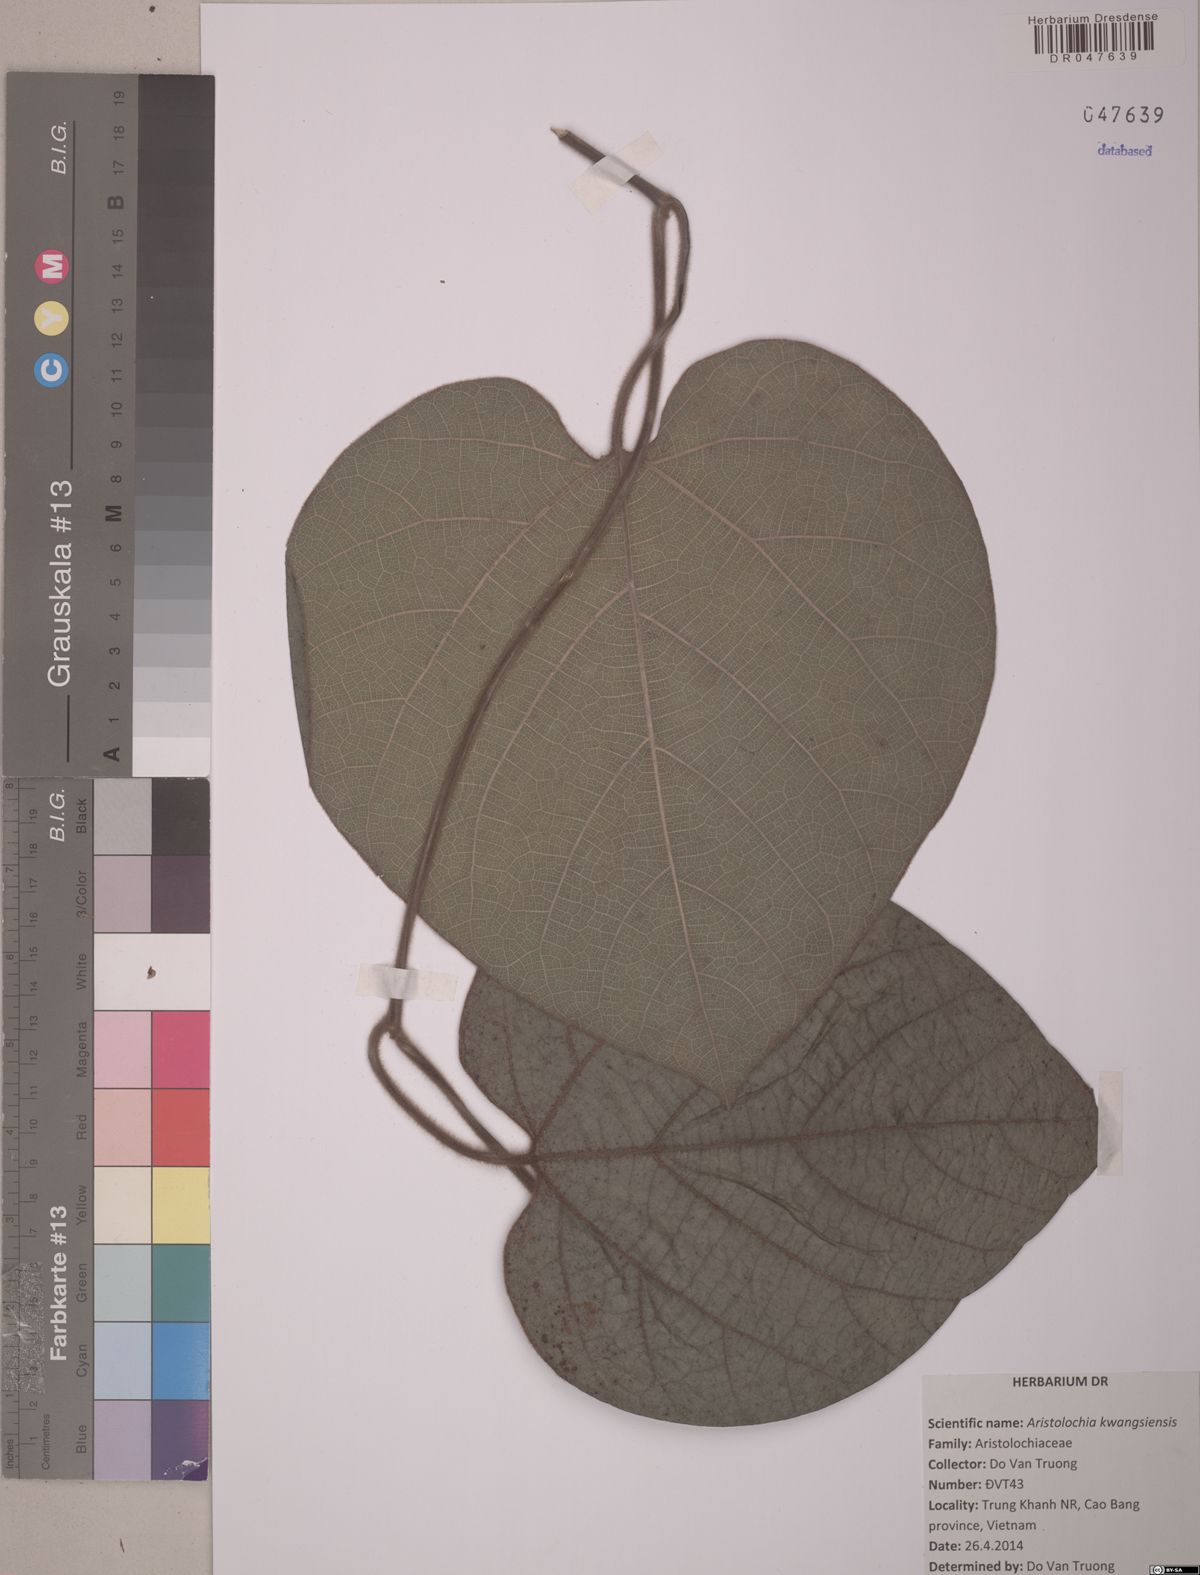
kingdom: Plantae
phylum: Tracheophyta
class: Magnoliopsida
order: Piperales
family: Aristolochiaceae
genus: Aristolochia
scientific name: Aristolochia kwangsiensis
